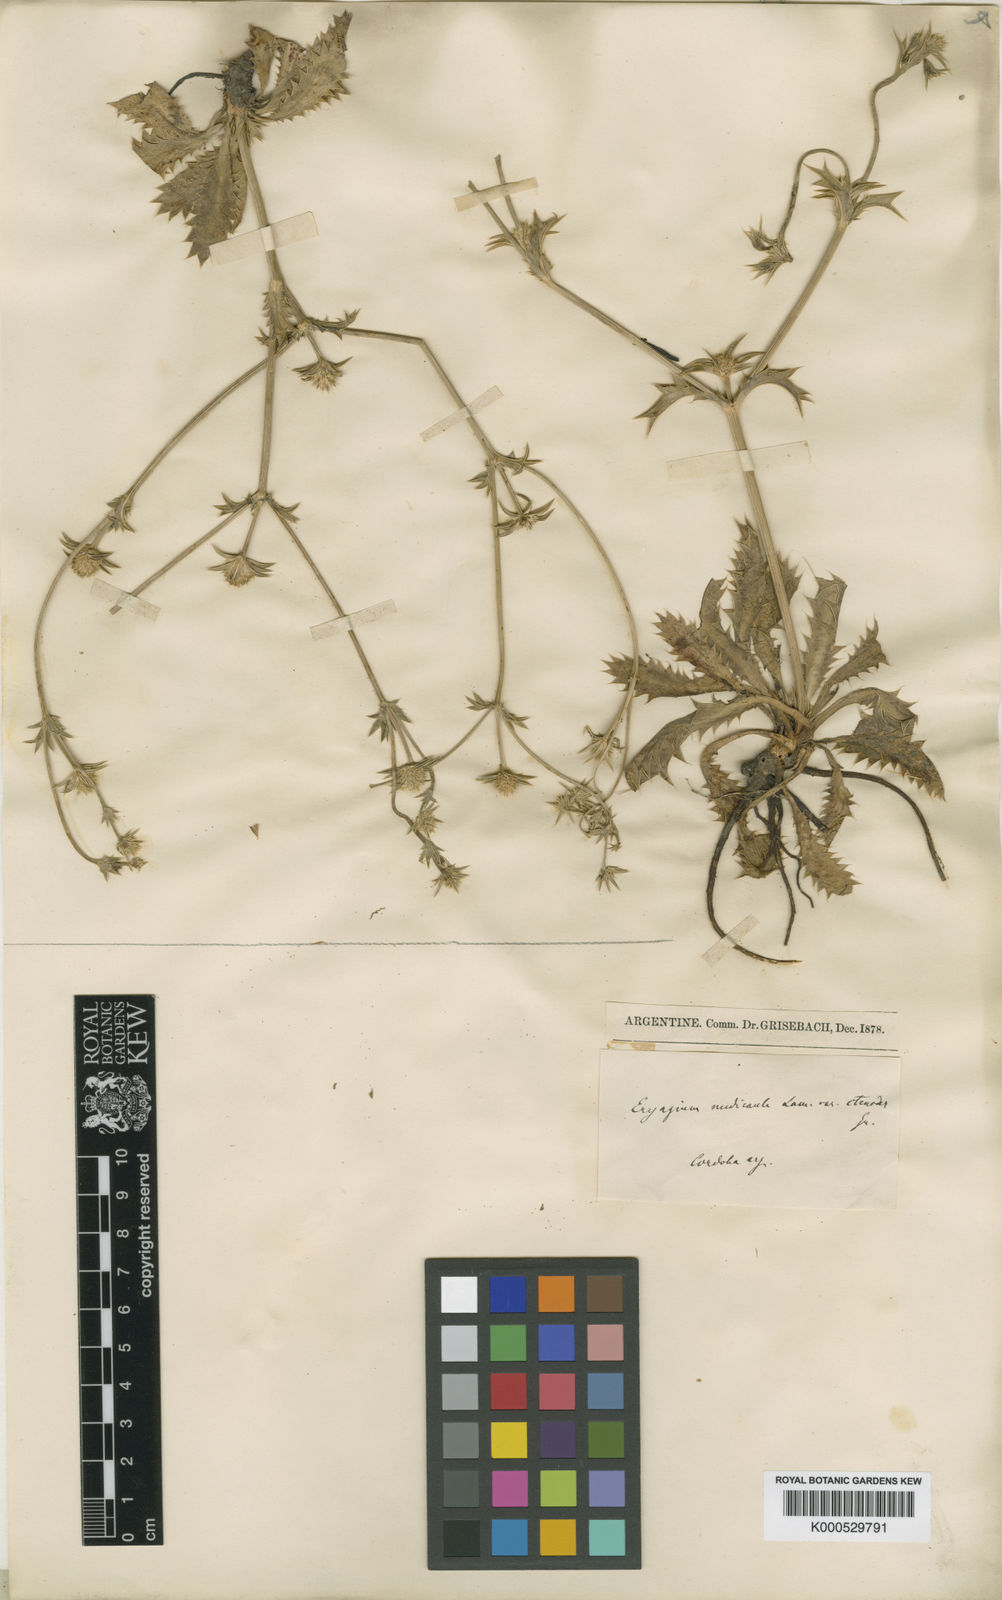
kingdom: Plantae
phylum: Tracheophyta
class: Magnoliopsida
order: Apiales
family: Apiaceae
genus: Eryngium
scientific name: Eryngium nudicaule
